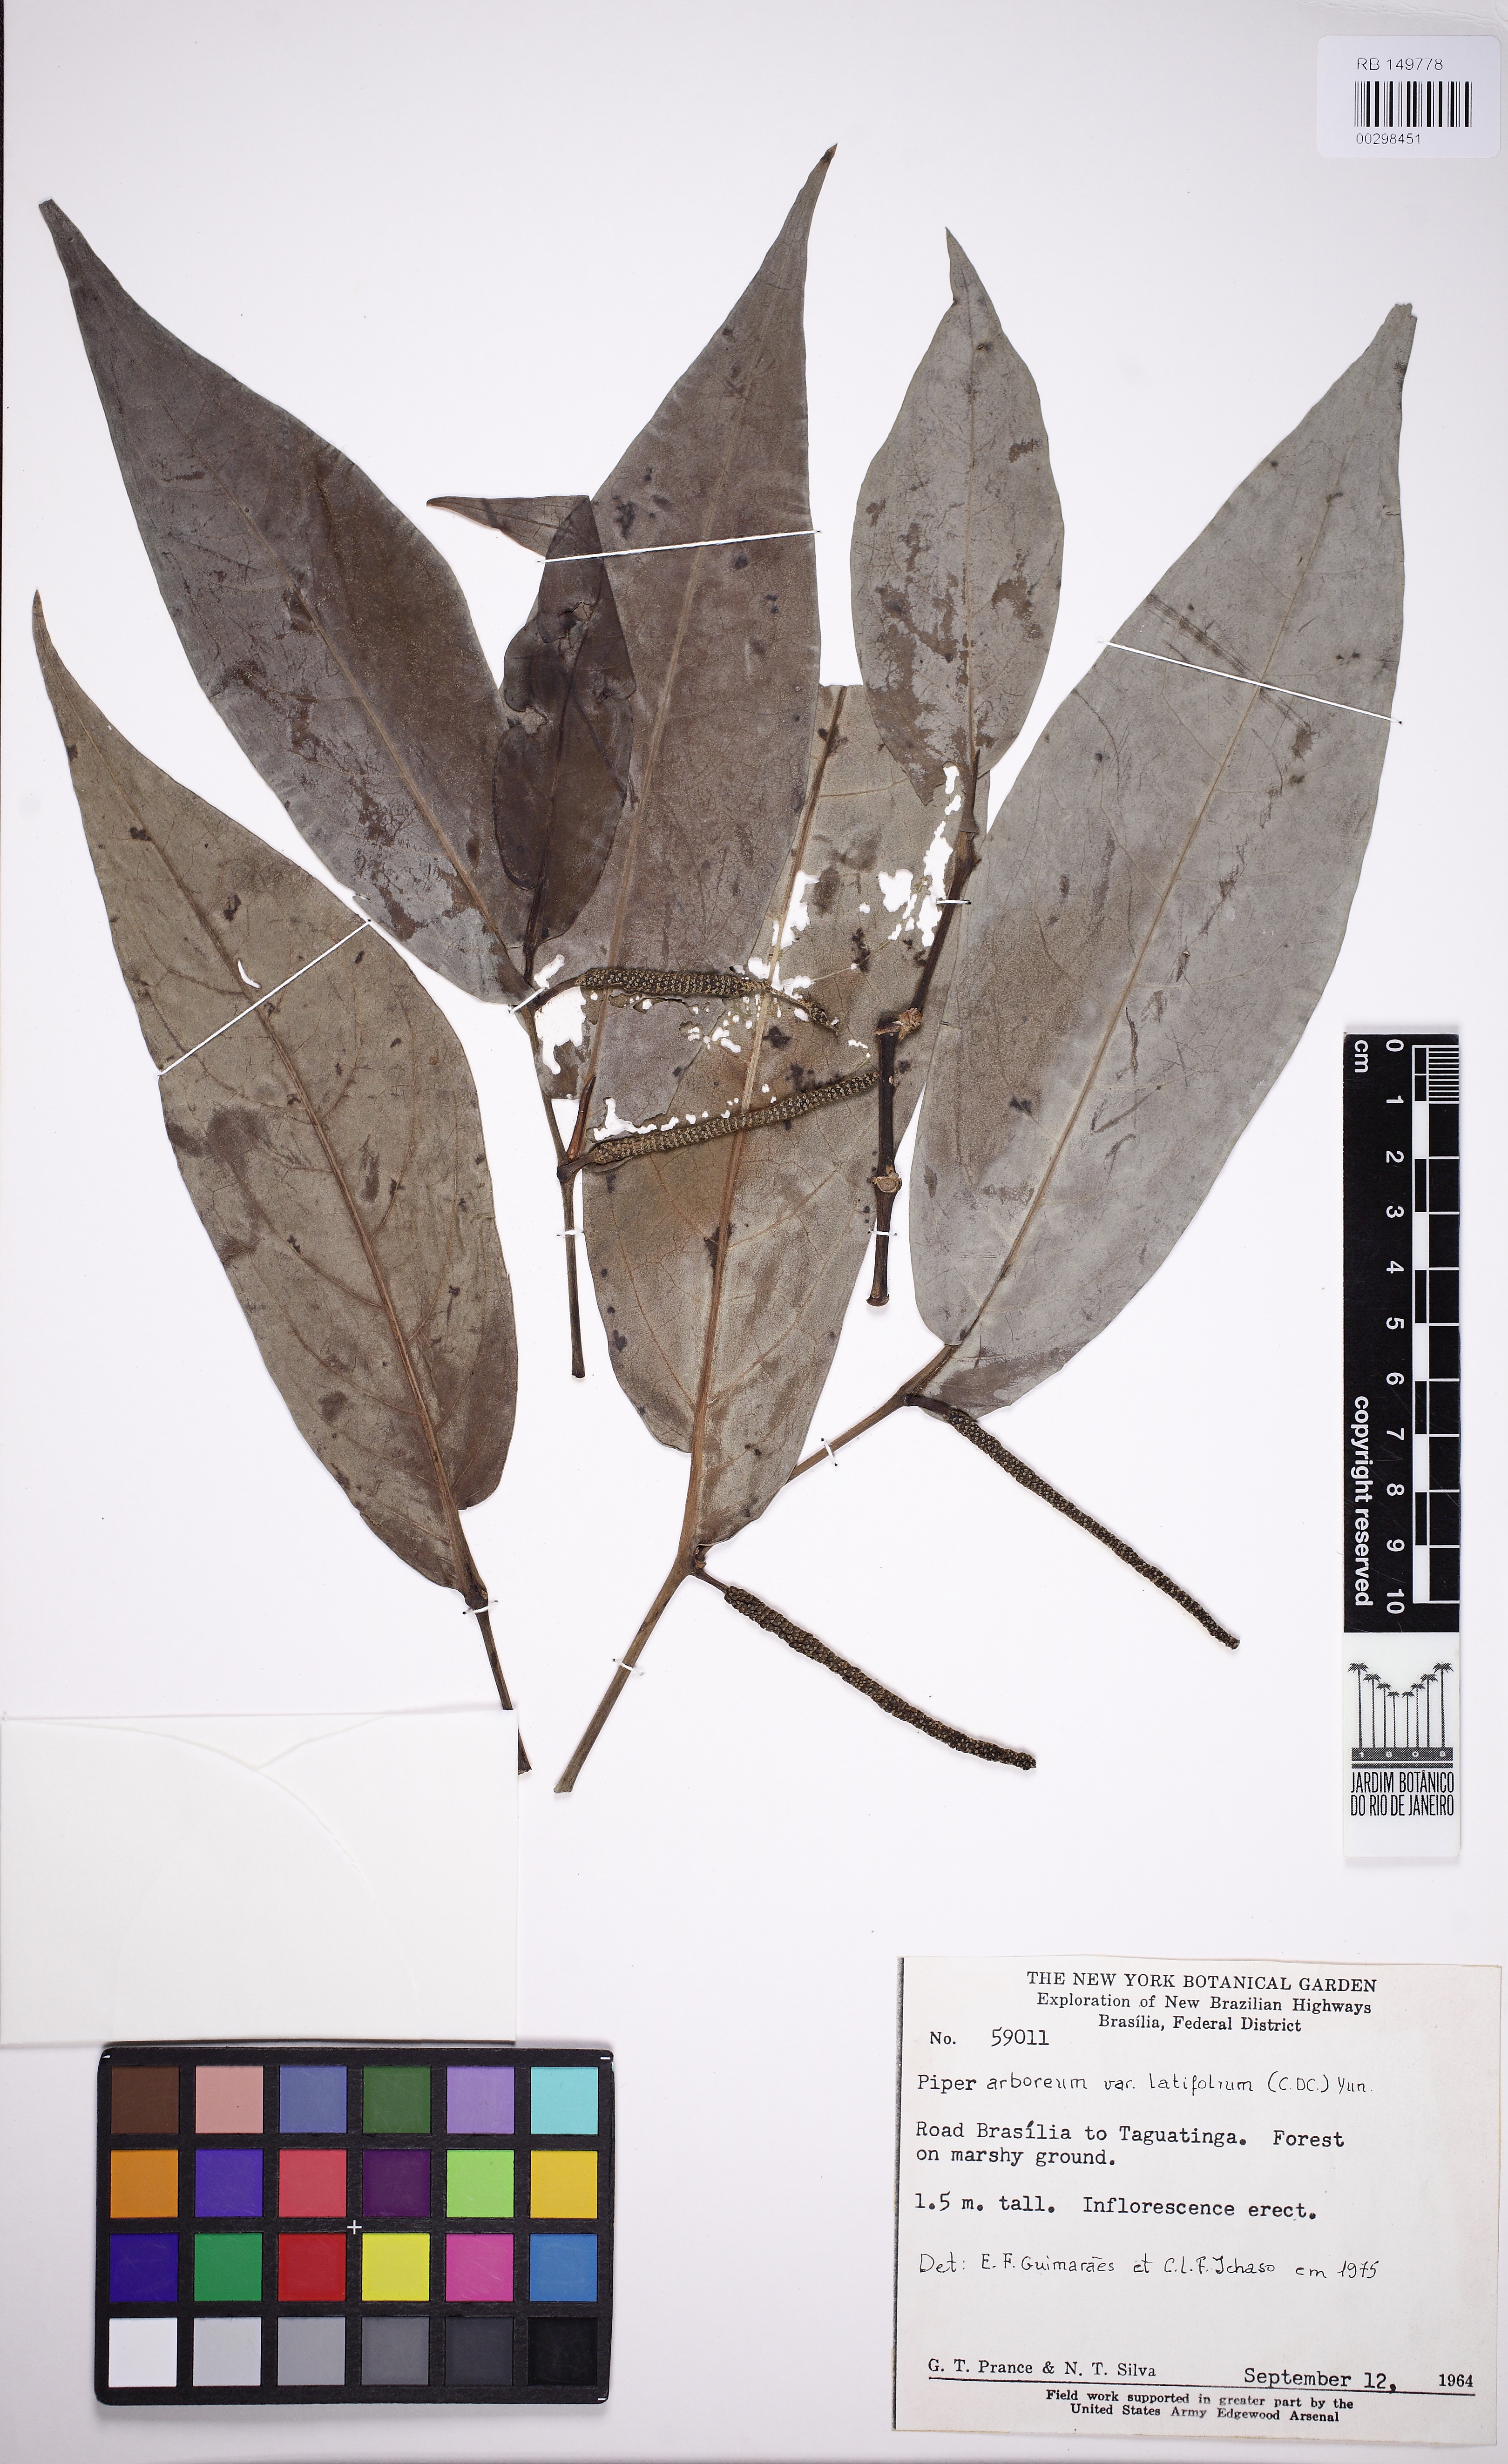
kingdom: Plantae
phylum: Tracheophyta
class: Magnoliopsida
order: Piperales
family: Piperaceae
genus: Piper
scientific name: Piper arboreum
